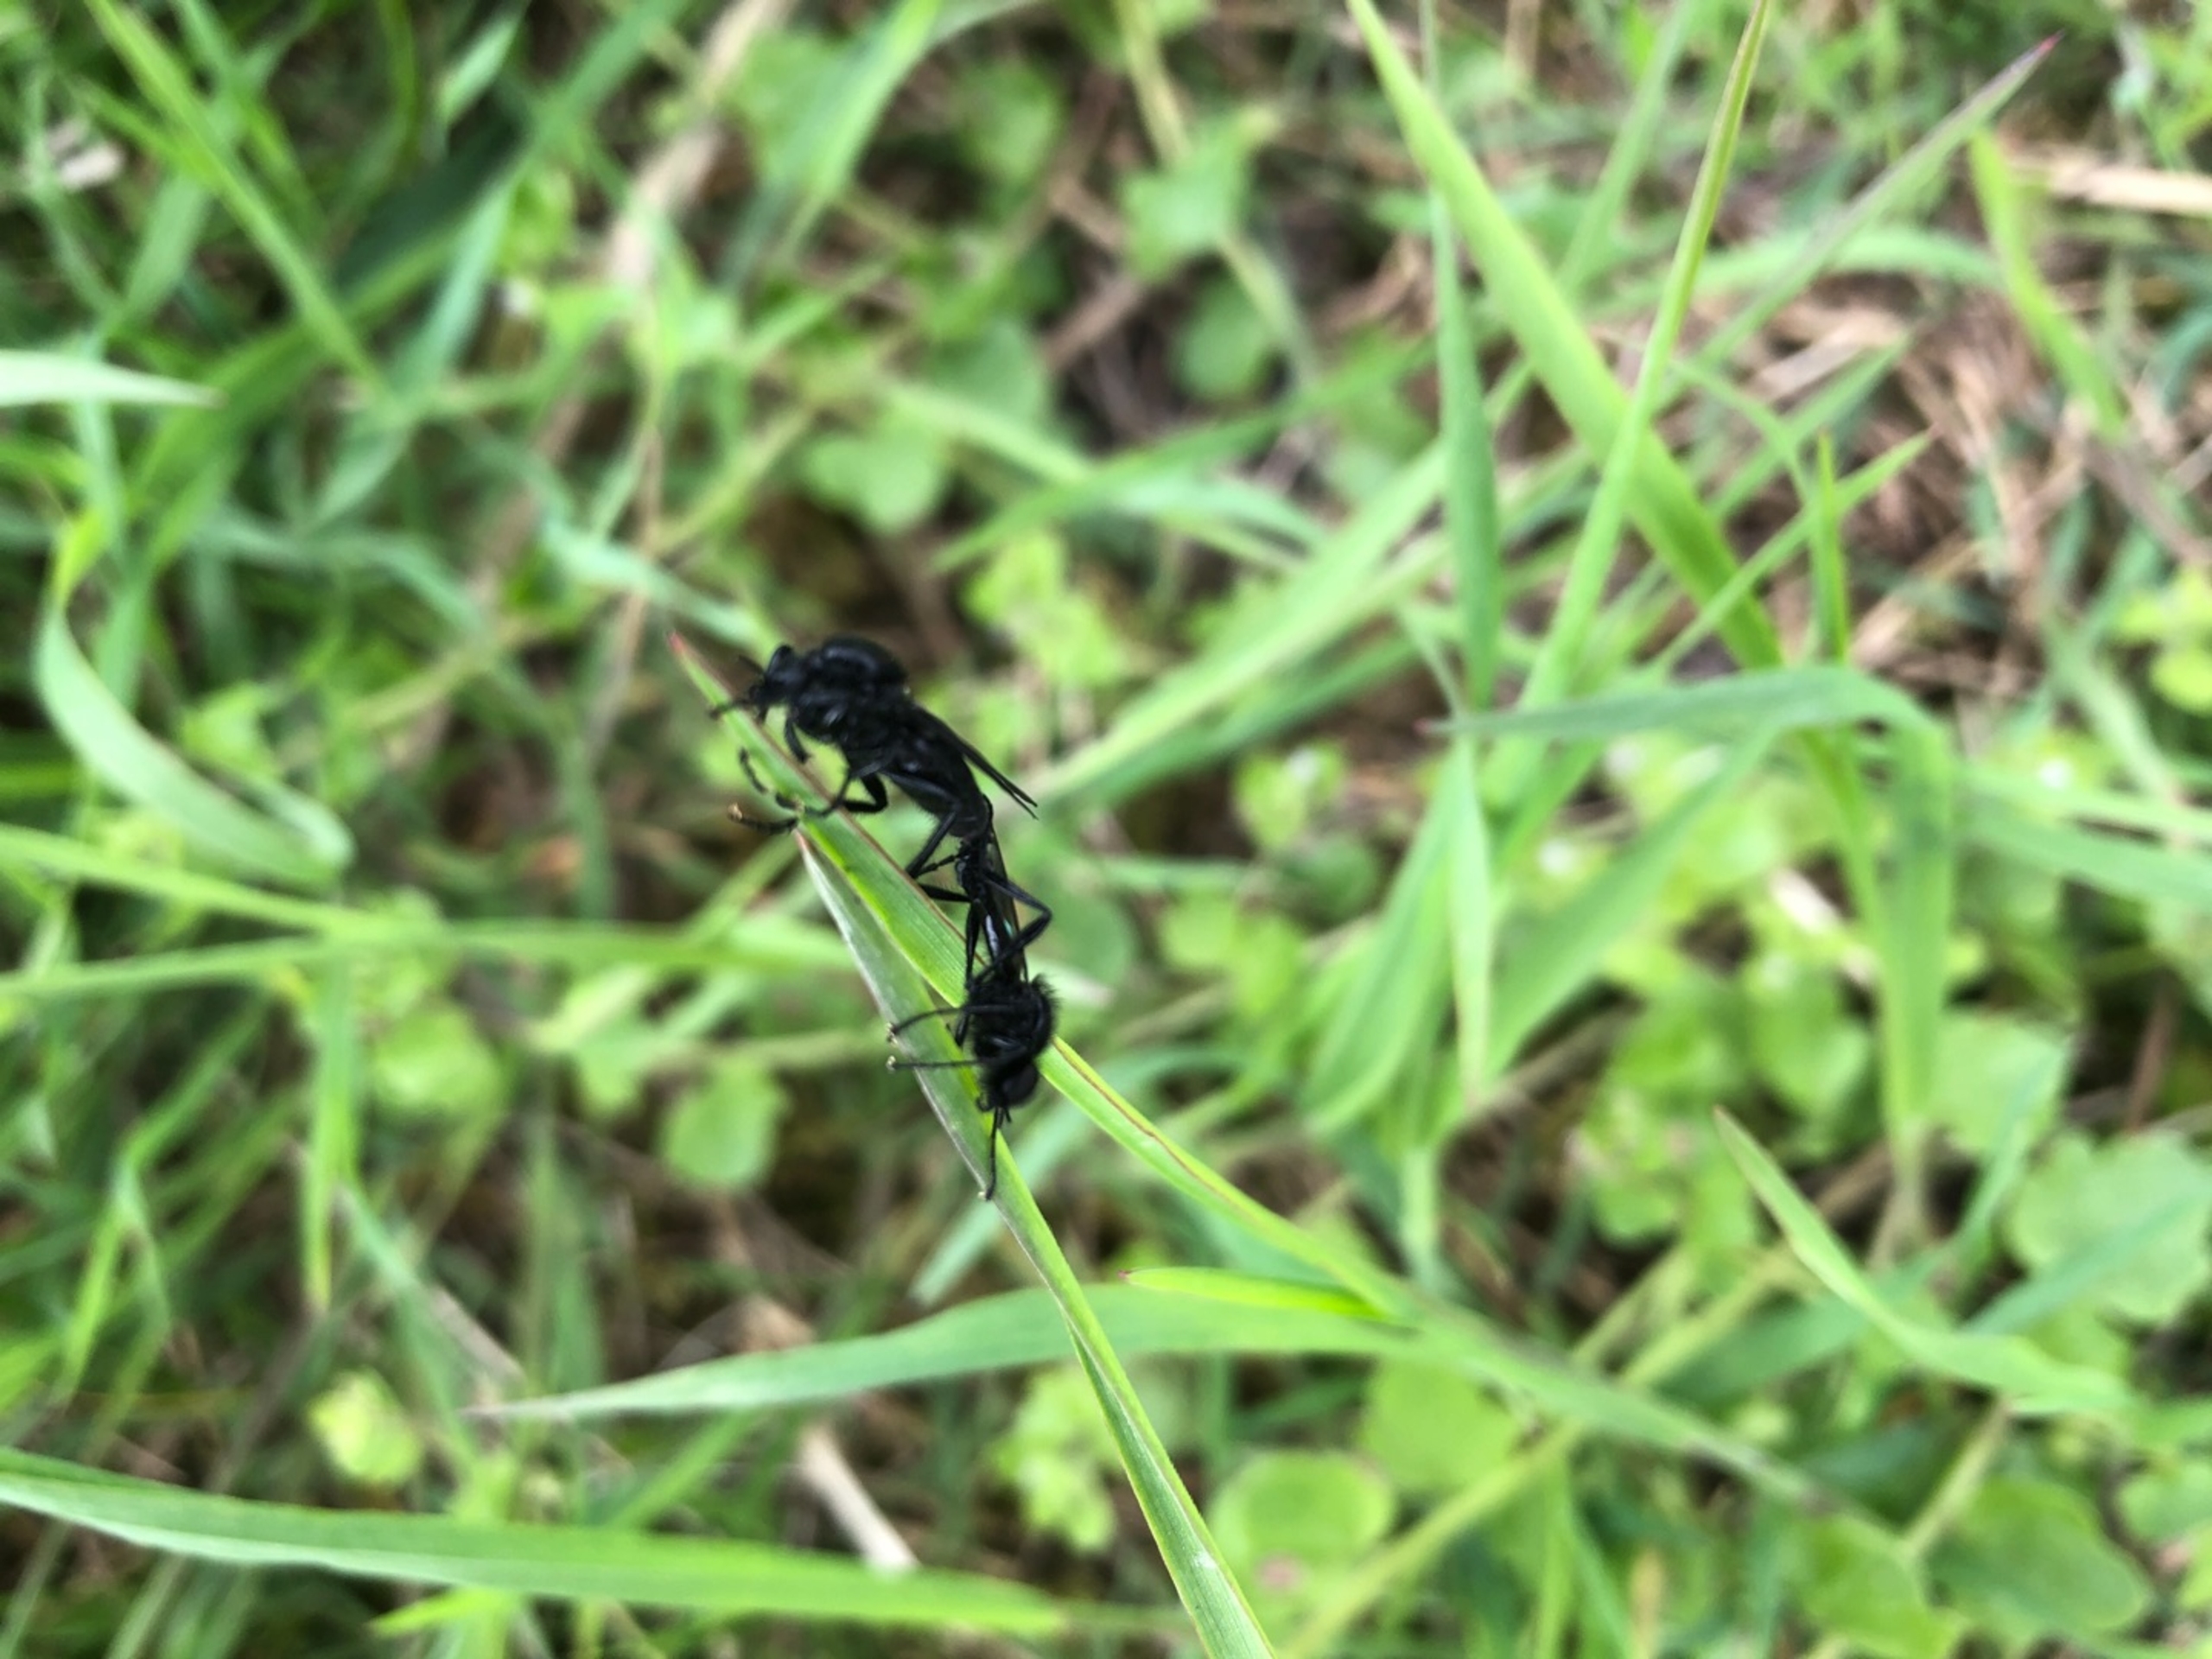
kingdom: Animalia
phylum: Arthropoda
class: Insecta
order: Diptera
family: Bibionidae
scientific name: Bibionidae
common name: Hårmyg
